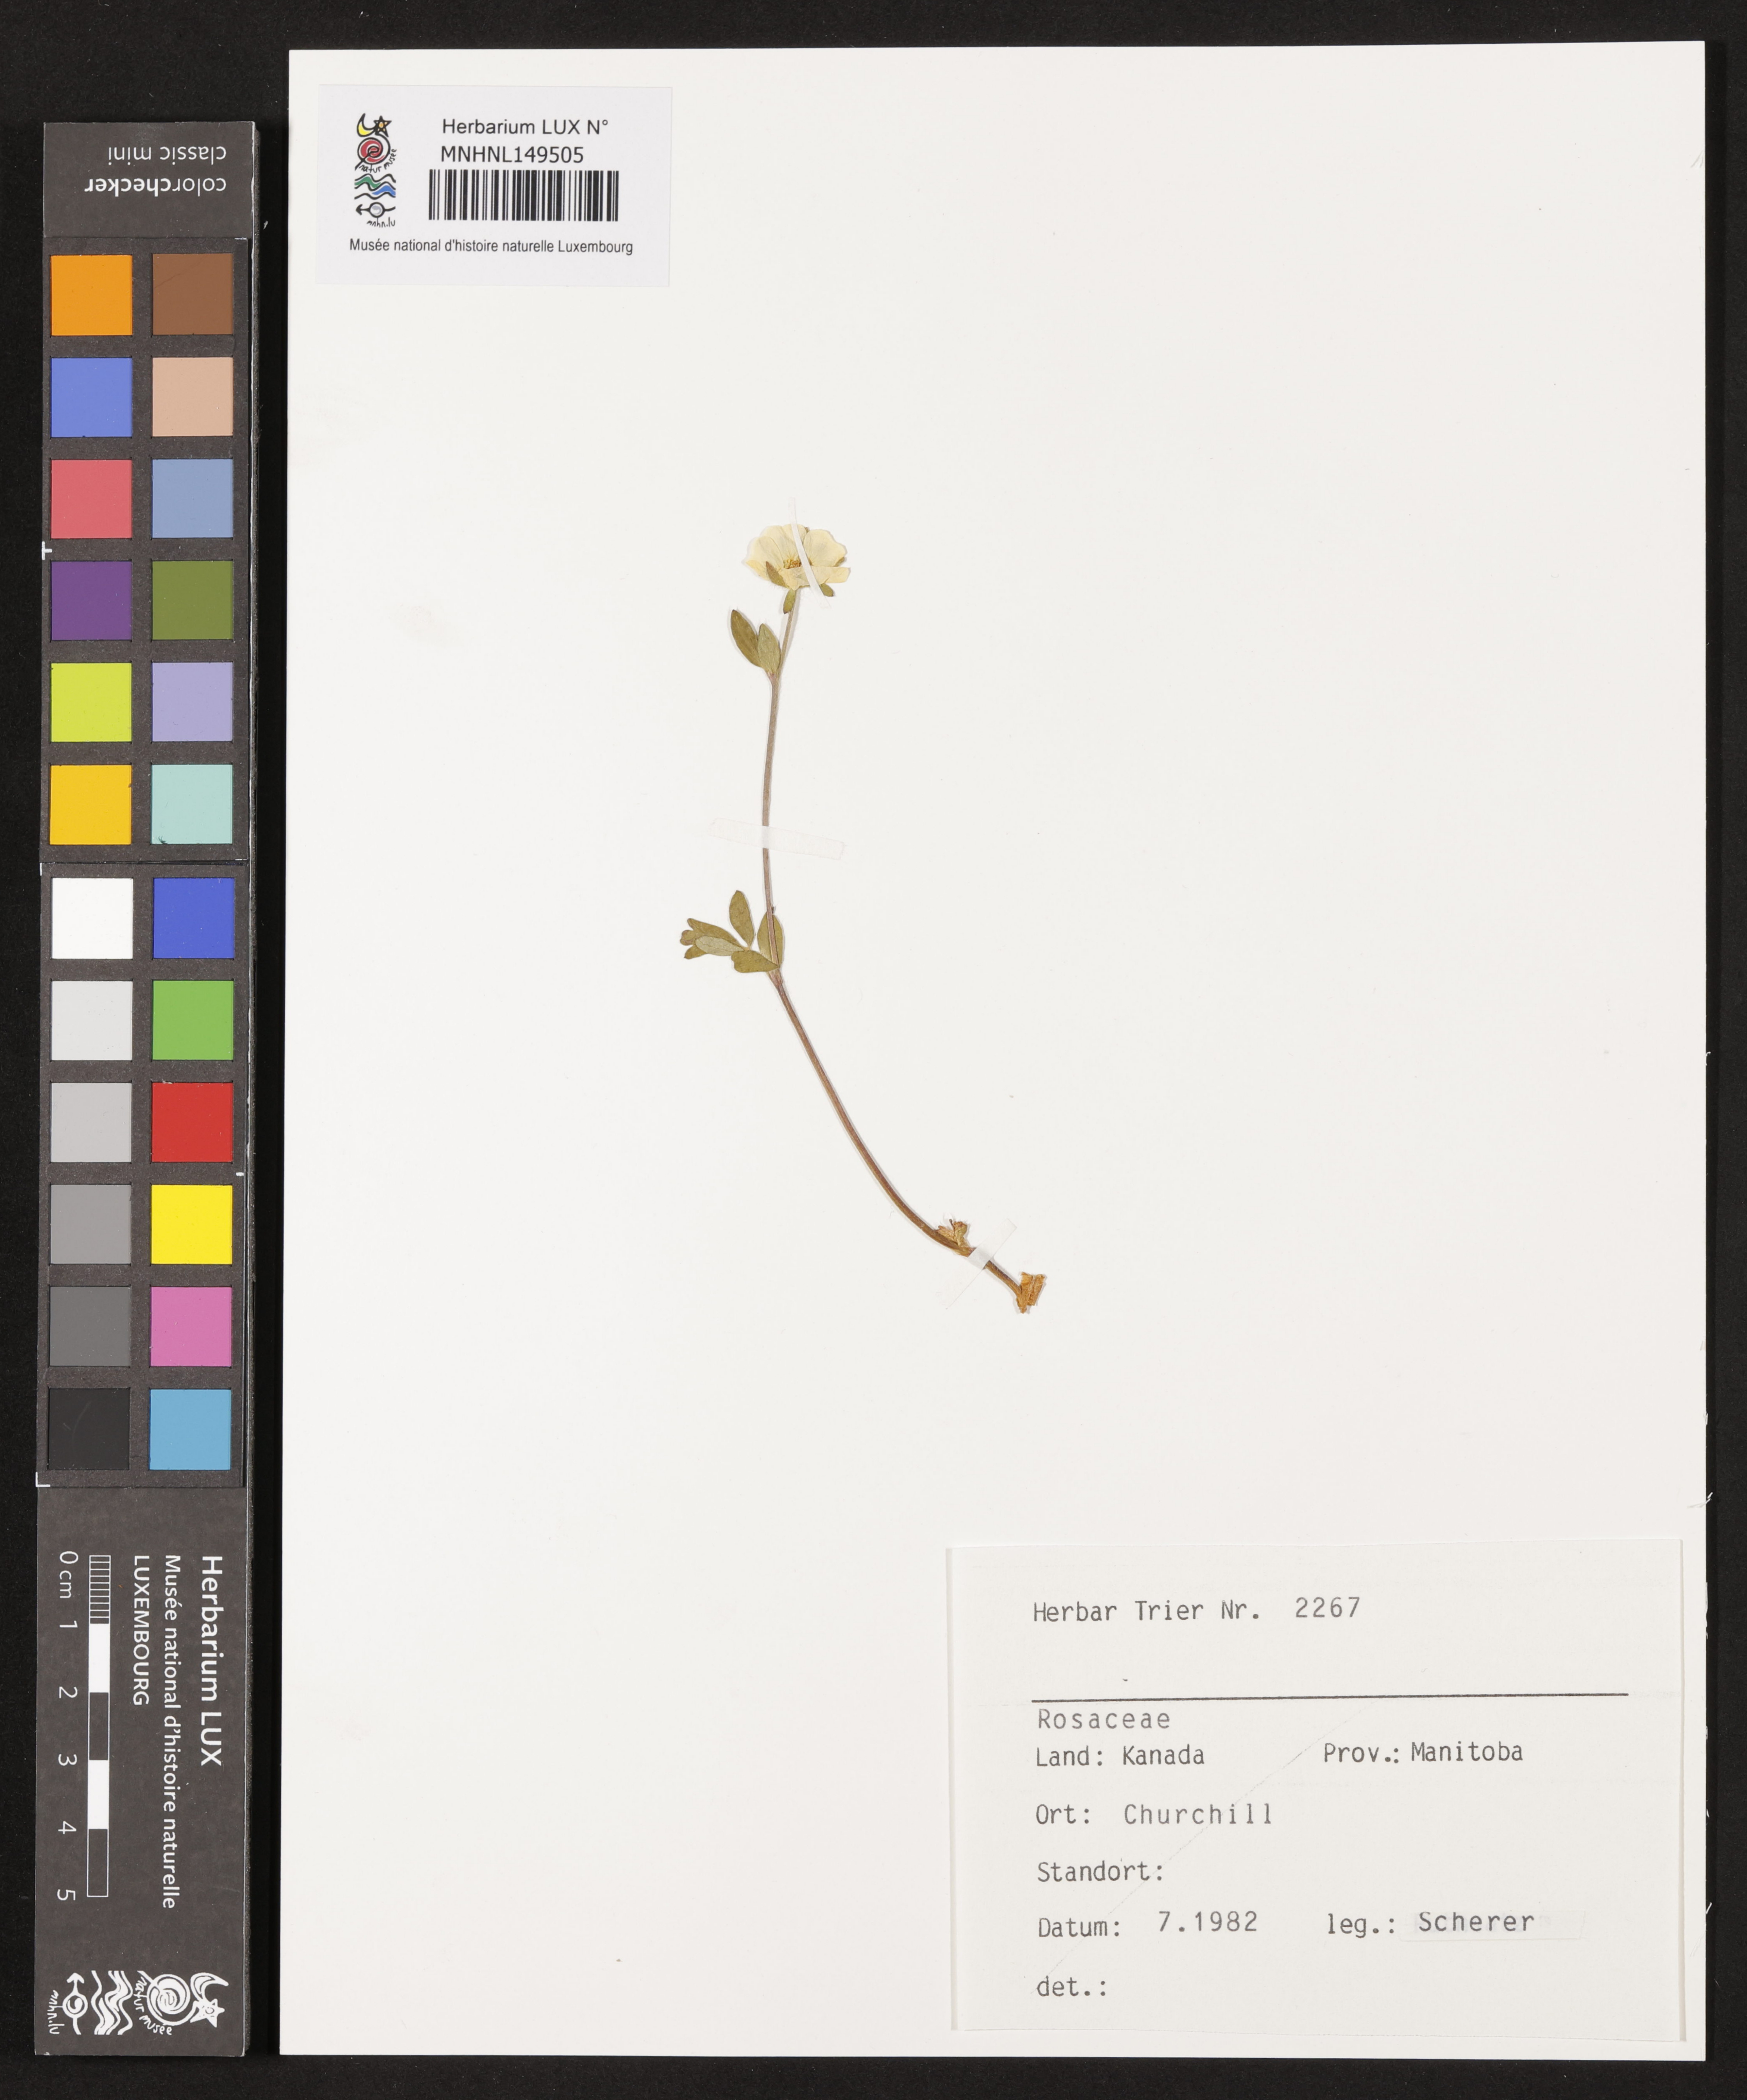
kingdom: Plantae
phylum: Tracheophyta
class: Magnoliopsida
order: Rosales
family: Rosaceae
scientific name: Rosaceae
